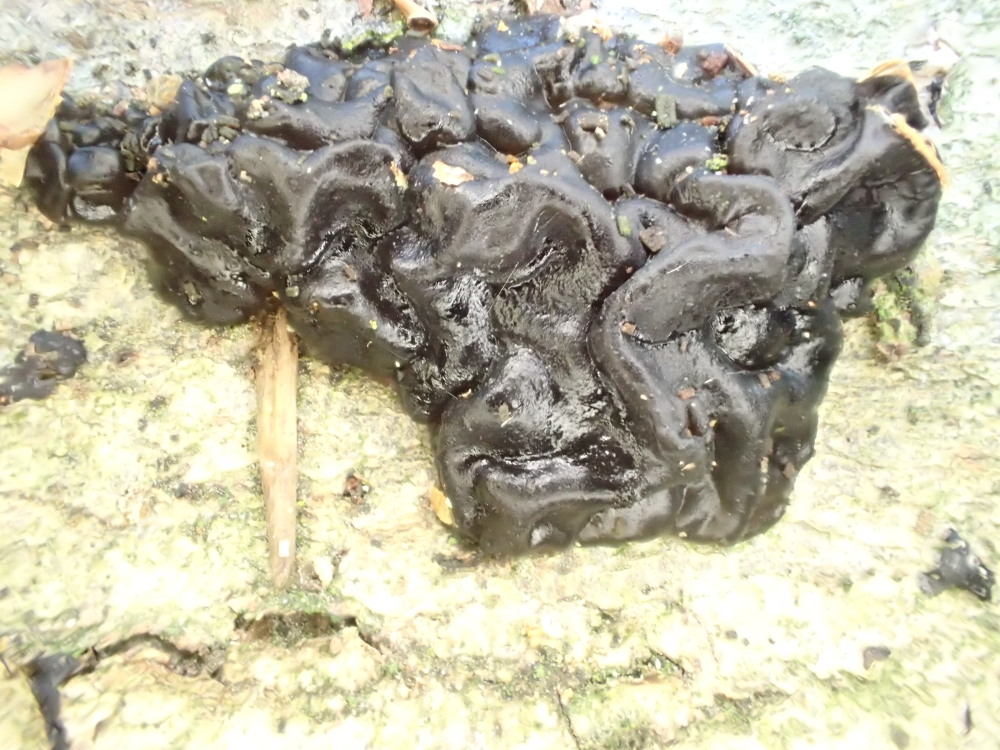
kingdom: Fungi
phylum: Basidiomycota
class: Agaricomycetes
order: Auriculariales
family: Auriculariaceae
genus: Exidia
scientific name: Exidia nigricans
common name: almindelig bævretop
